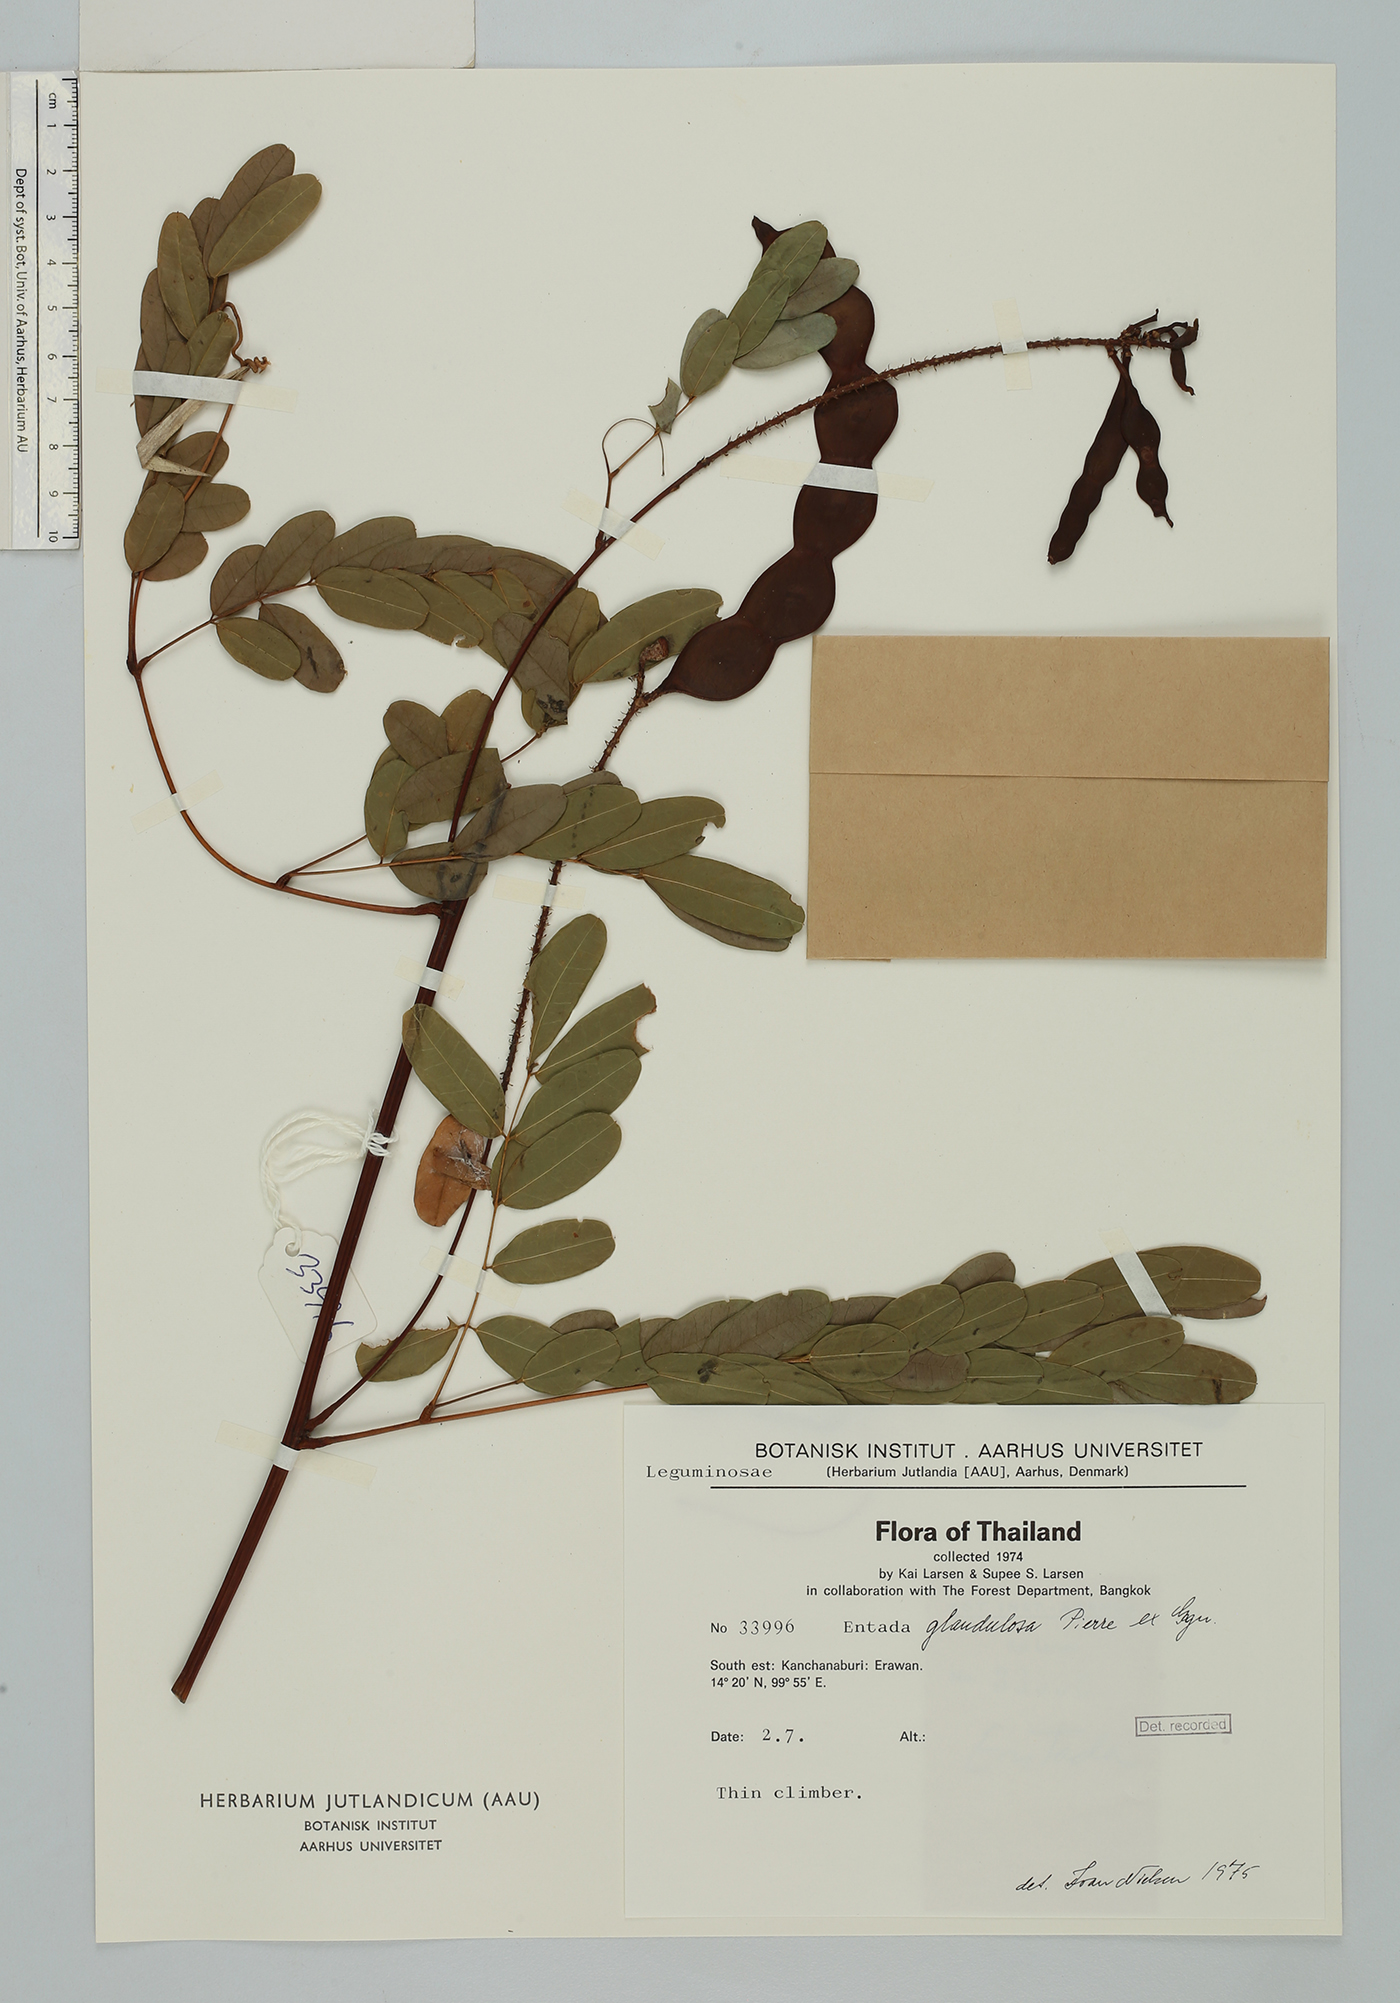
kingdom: Plantae
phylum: Tracheophyta
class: Magnoliopsida
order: Fabales
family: Fabaceae
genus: Entada
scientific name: Entada glandulosa
